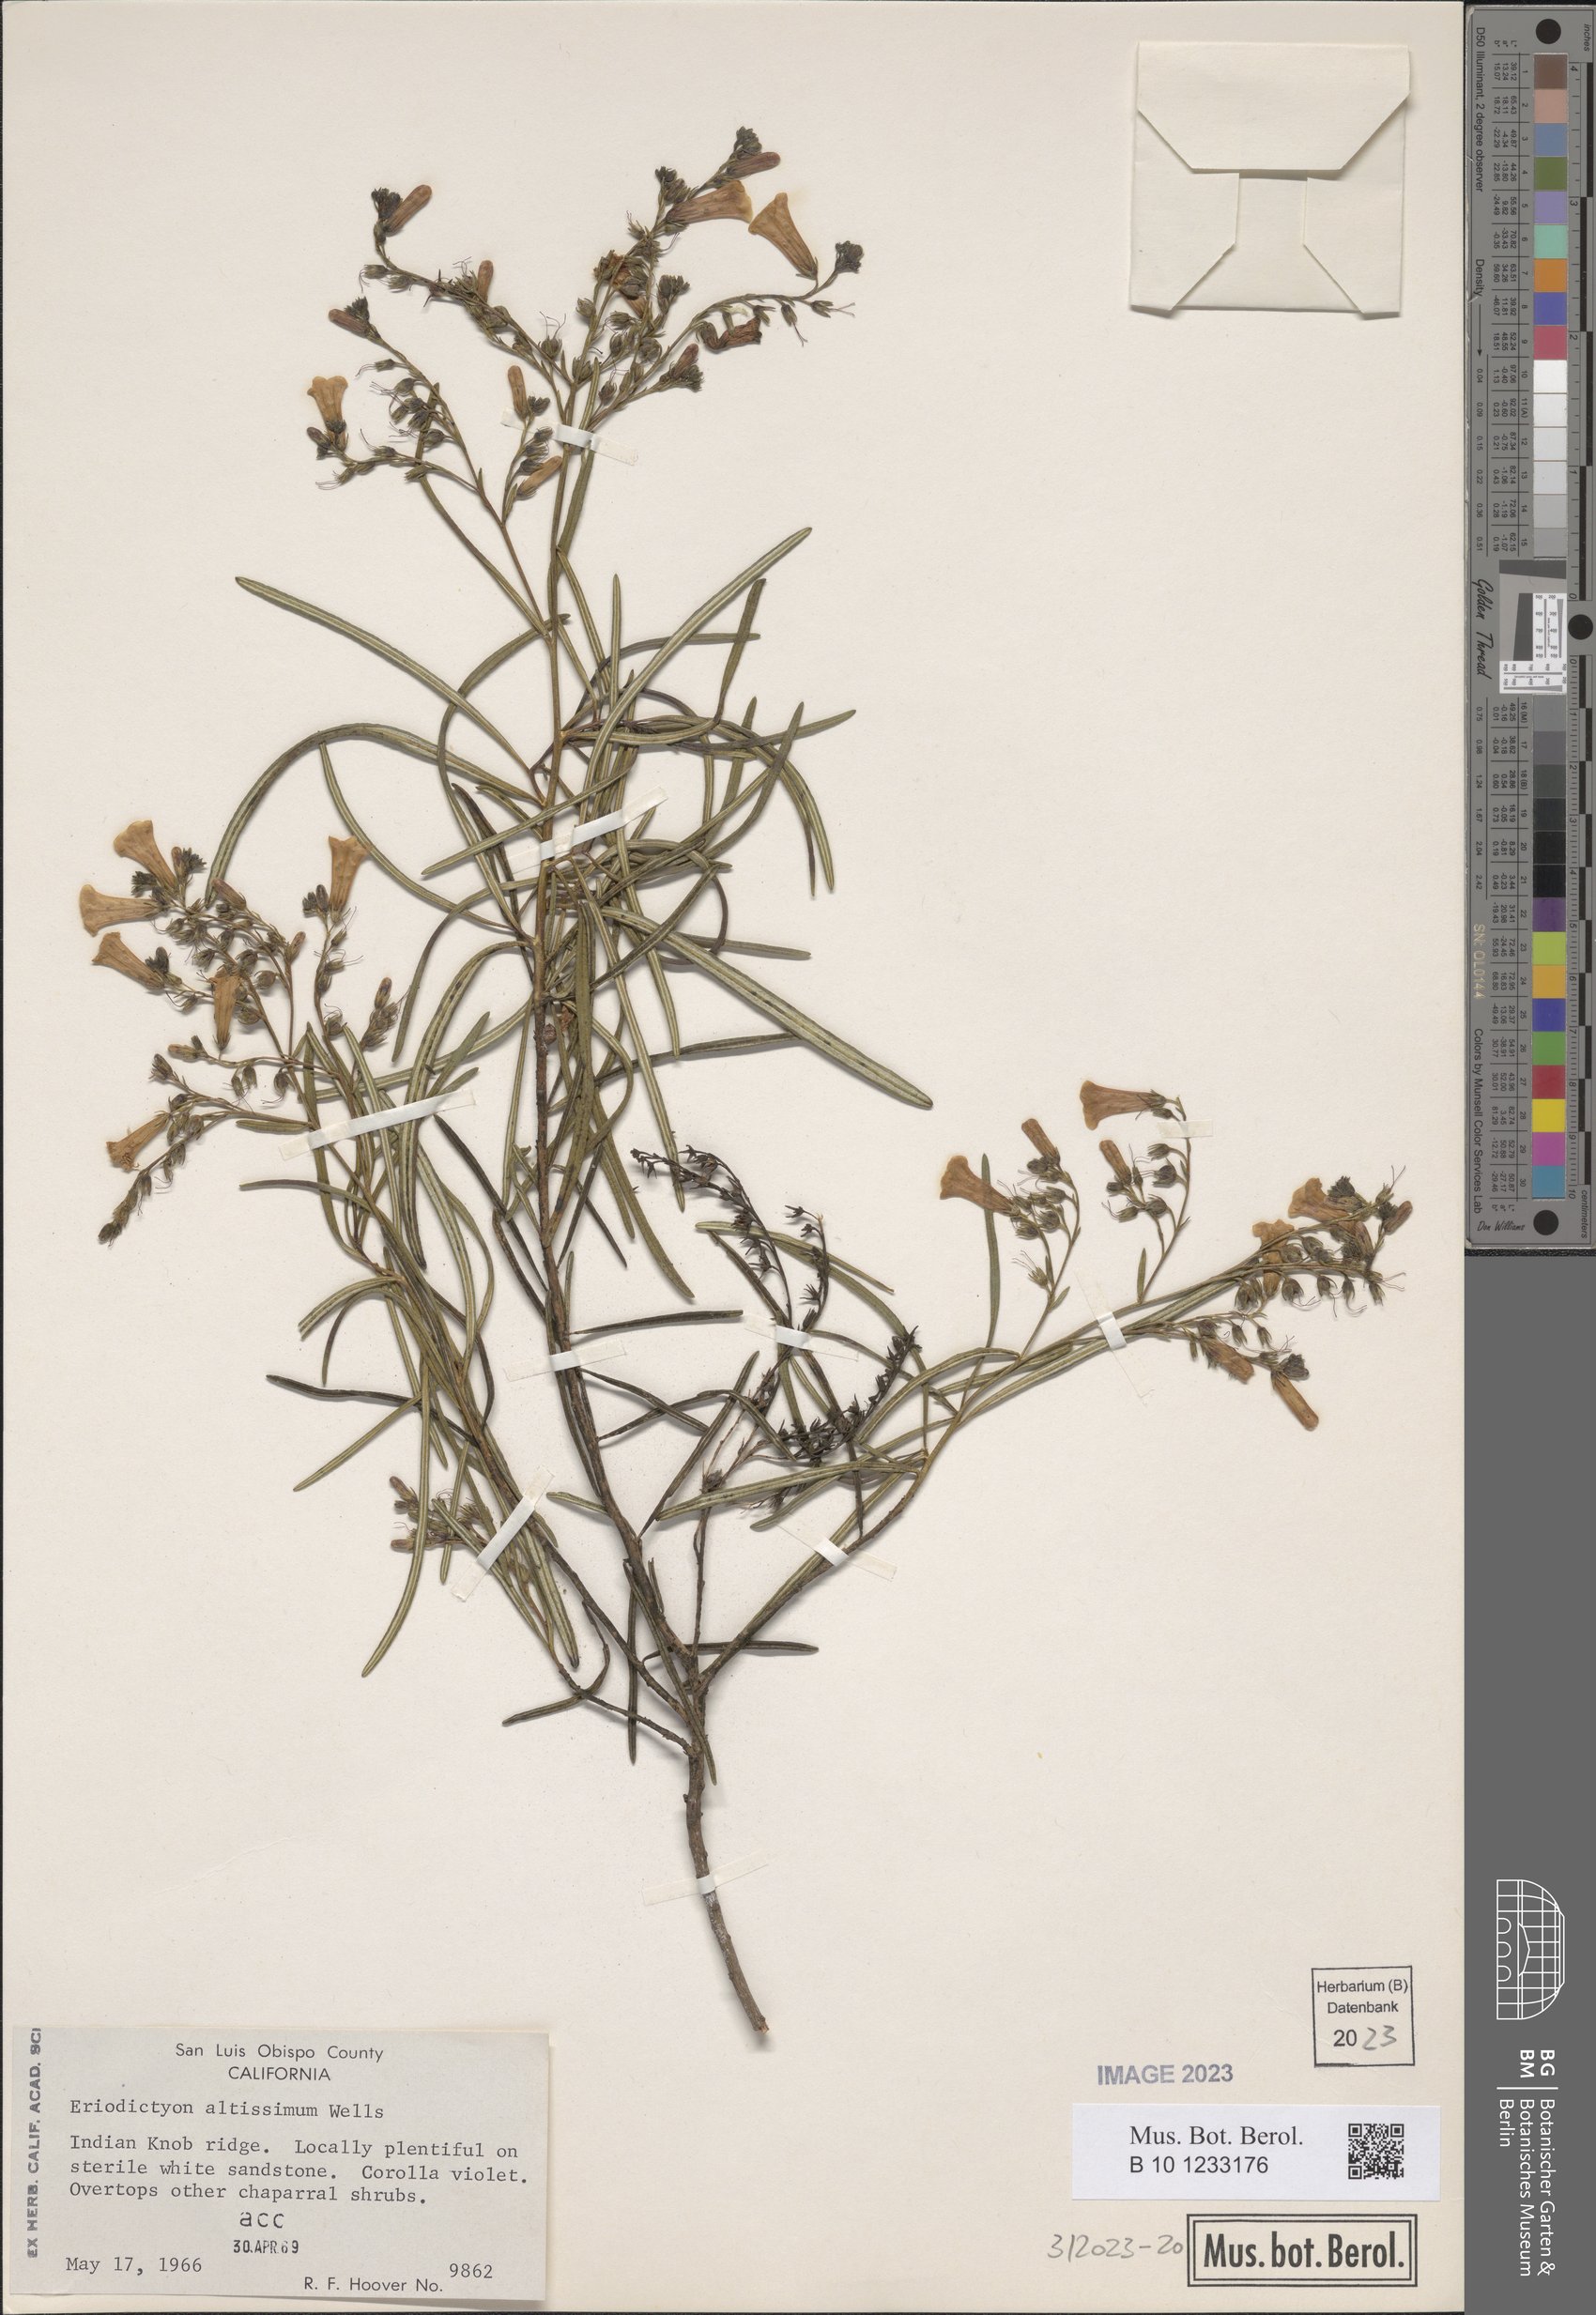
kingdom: Plantae
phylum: Tracheophyta
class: Magnoliopsida
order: Boraginales
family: Namaceae
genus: Eriodictyon
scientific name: Eriodictyon altissimum
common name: Indian knob mountain balm
